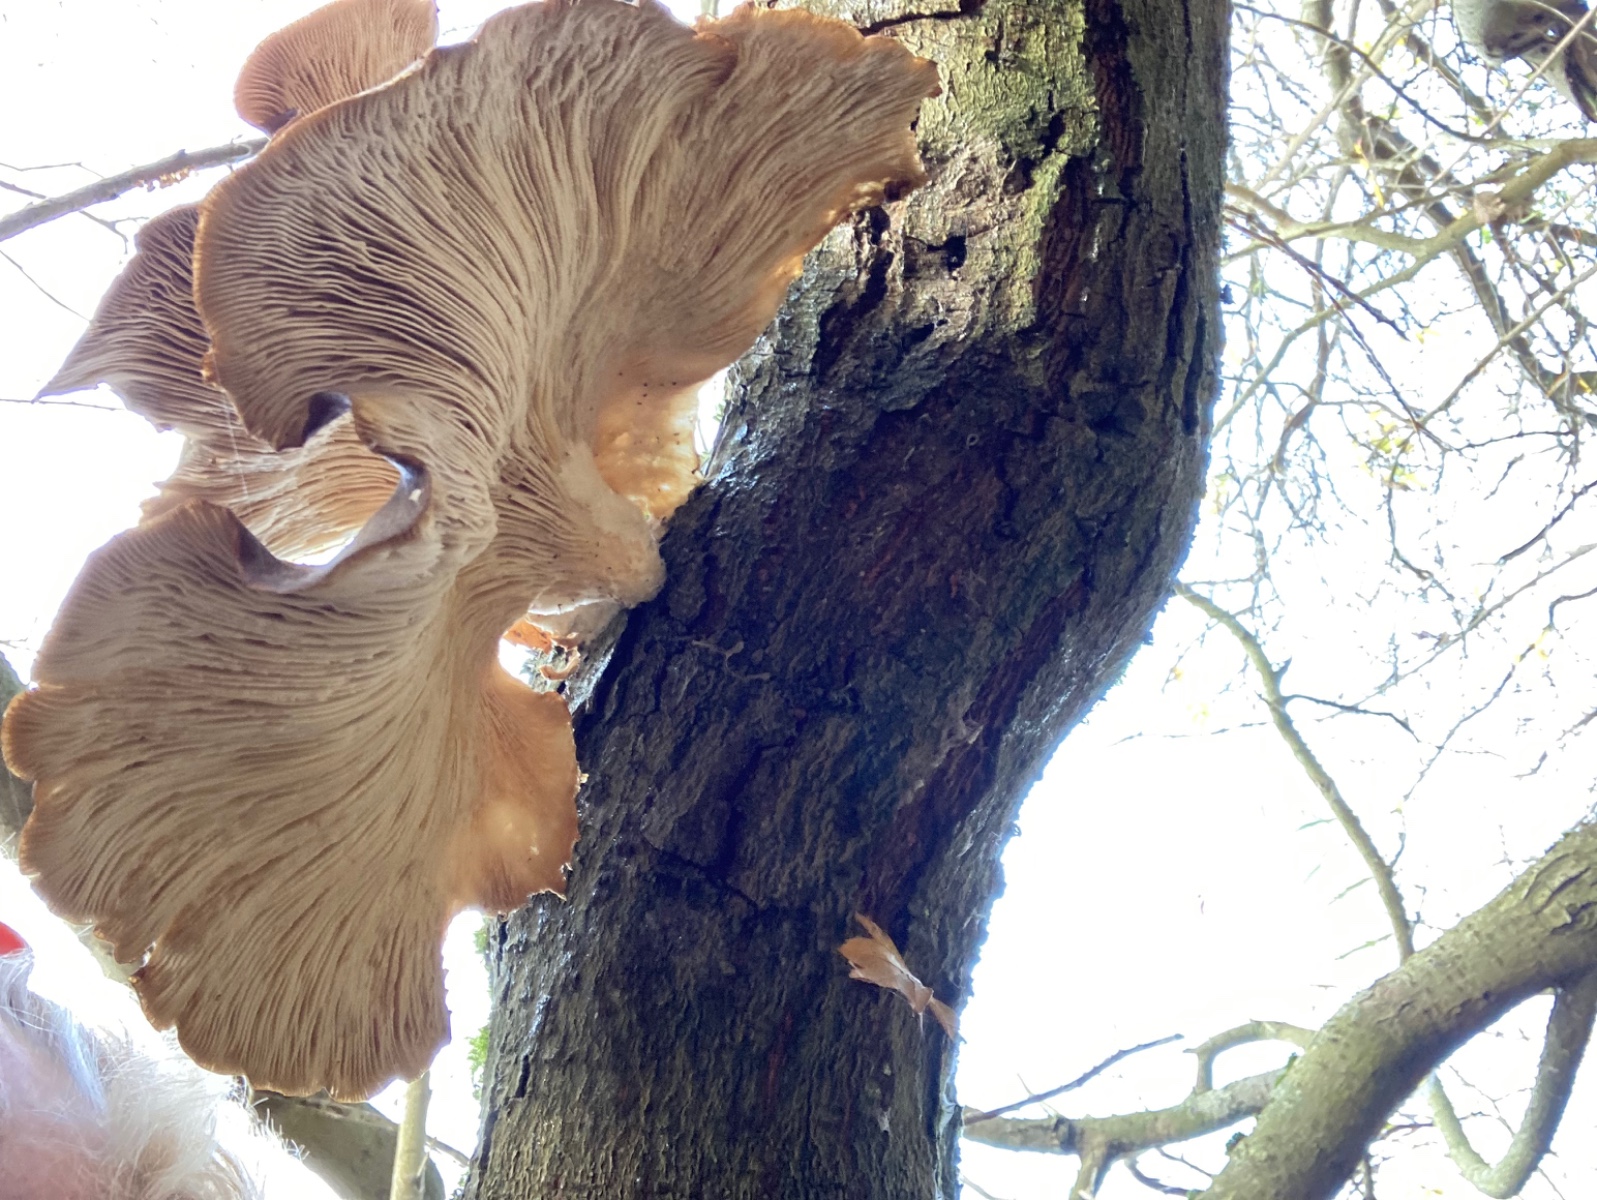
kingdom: Fungi
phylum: Basidiomycota
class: Agaricomycetes
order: Agaricales
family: Pleurotaceae
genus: Pleurotus
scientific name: Pleurotus ostreatus
